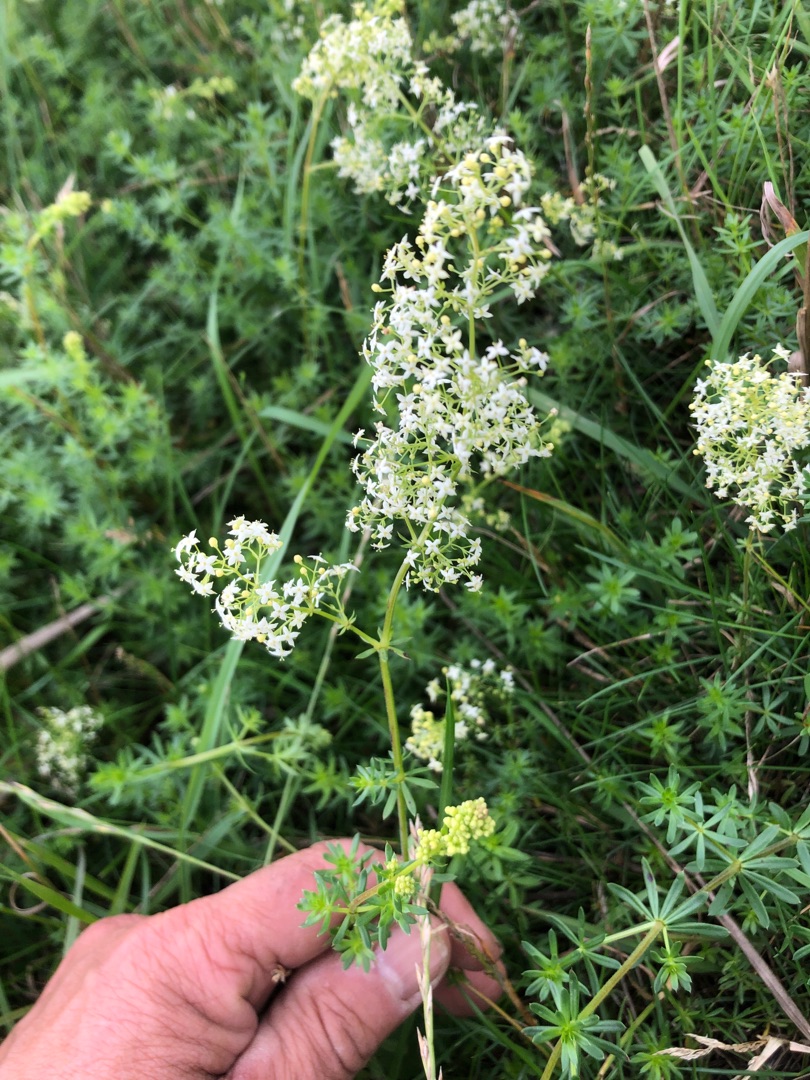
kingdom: Plantae
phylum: Tracheophyta
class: Magnoliopsida
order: Gentianales
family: Rubiaceae
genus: Galium
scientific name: Galium mollugo
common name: Hvid snerre
